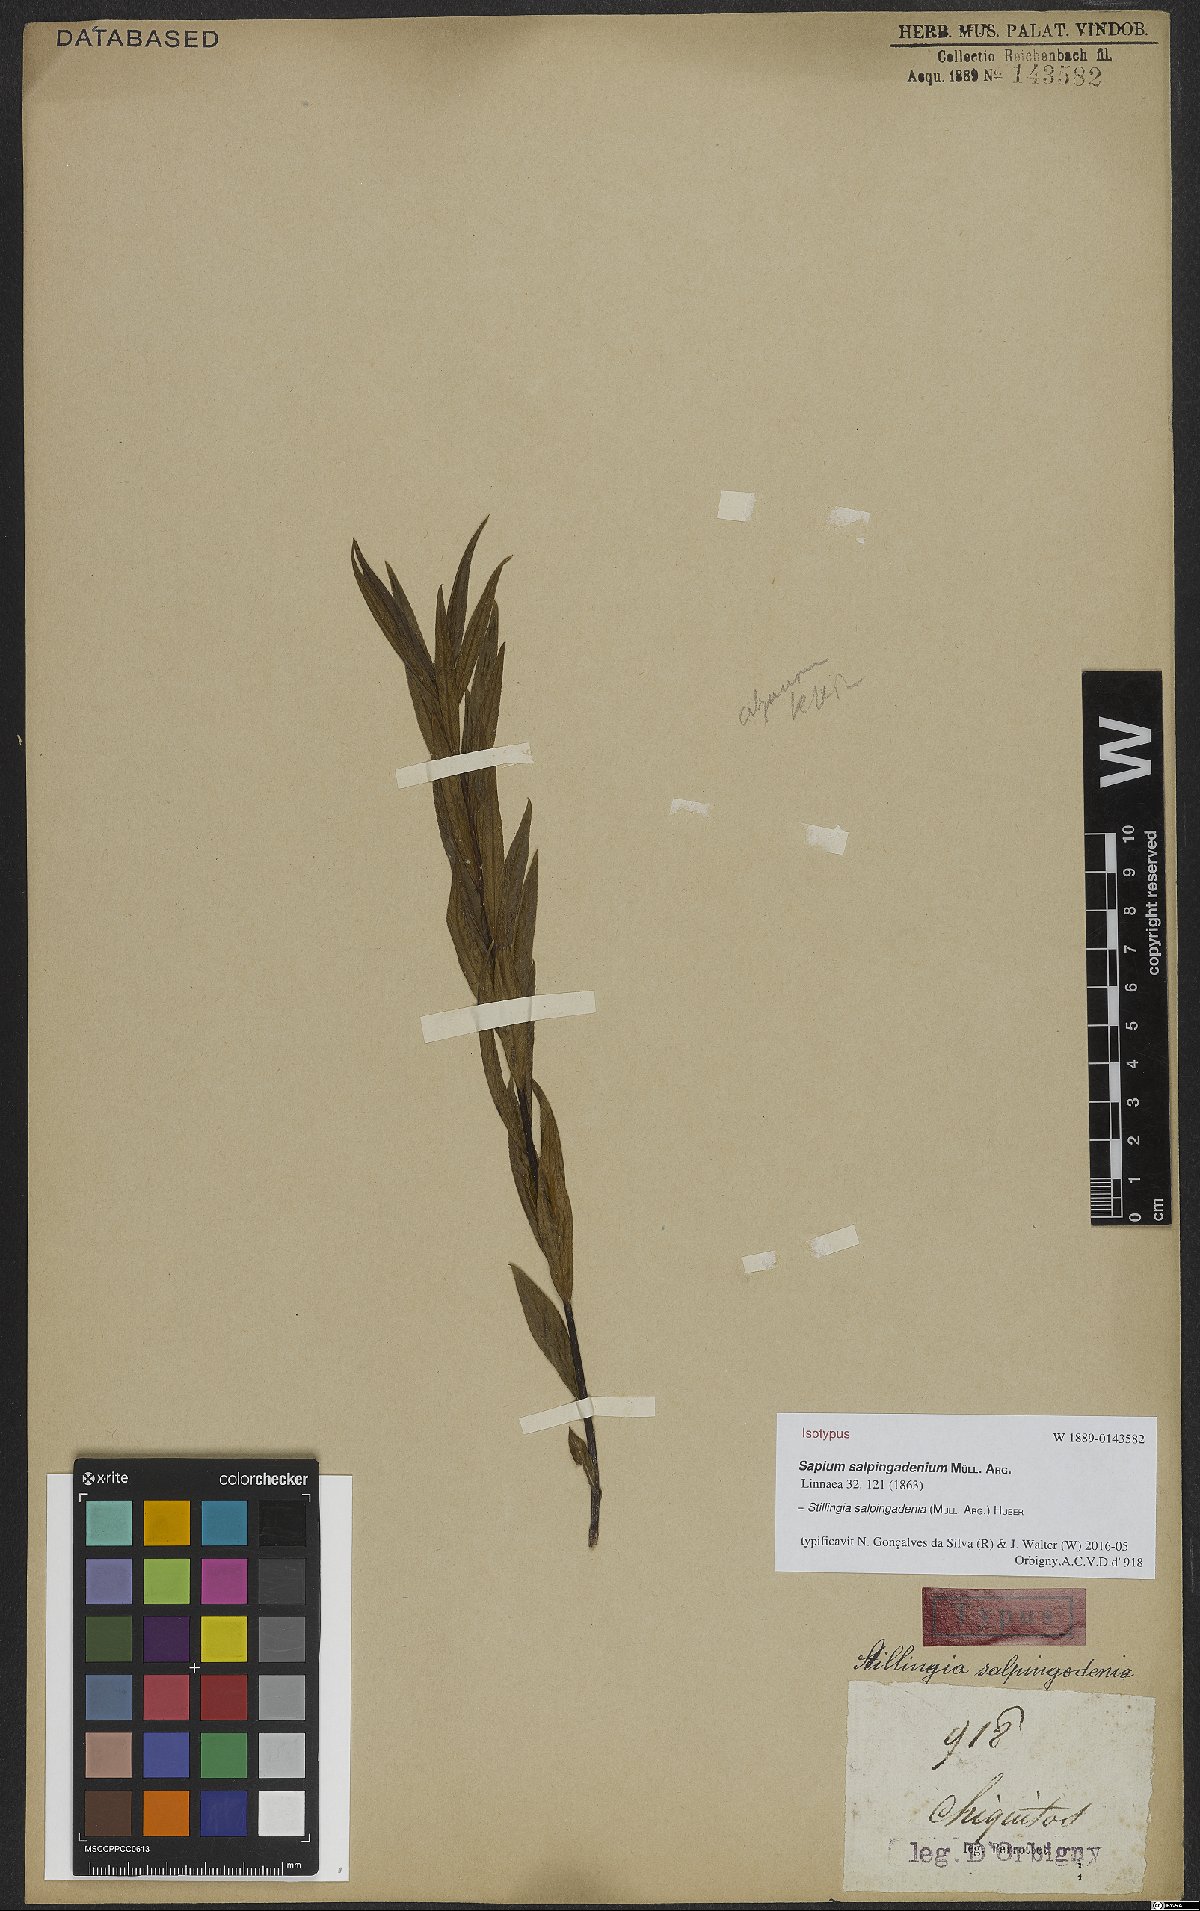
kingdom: Plantae
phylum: Tracheophyta
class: Magnoliopsida
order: Malpighiales
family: Euphorbiaceae
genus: Stillingia
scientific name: Stillingia salpingadenia
